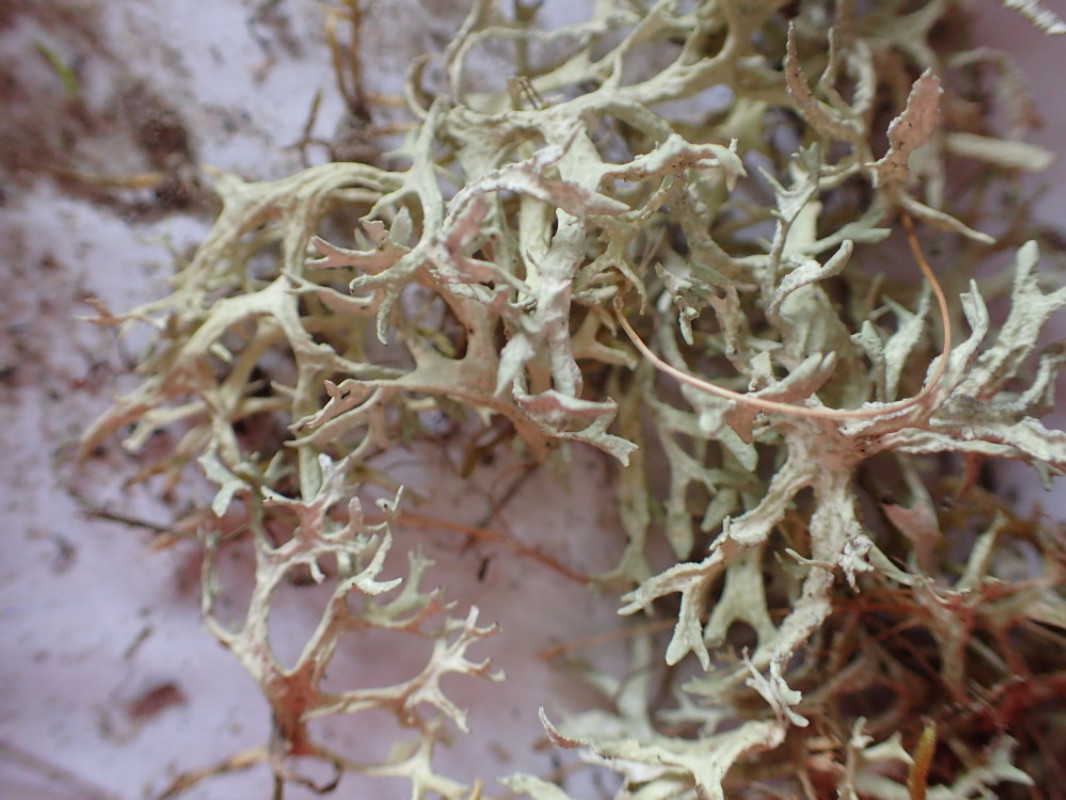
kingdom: Fungi
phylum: Ascomycota
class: Lecanoromycetes
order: Lecanorales
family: Parmeliaceae
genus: Evernia
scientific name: Evernia prunastri
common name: almindelig slåenlav
